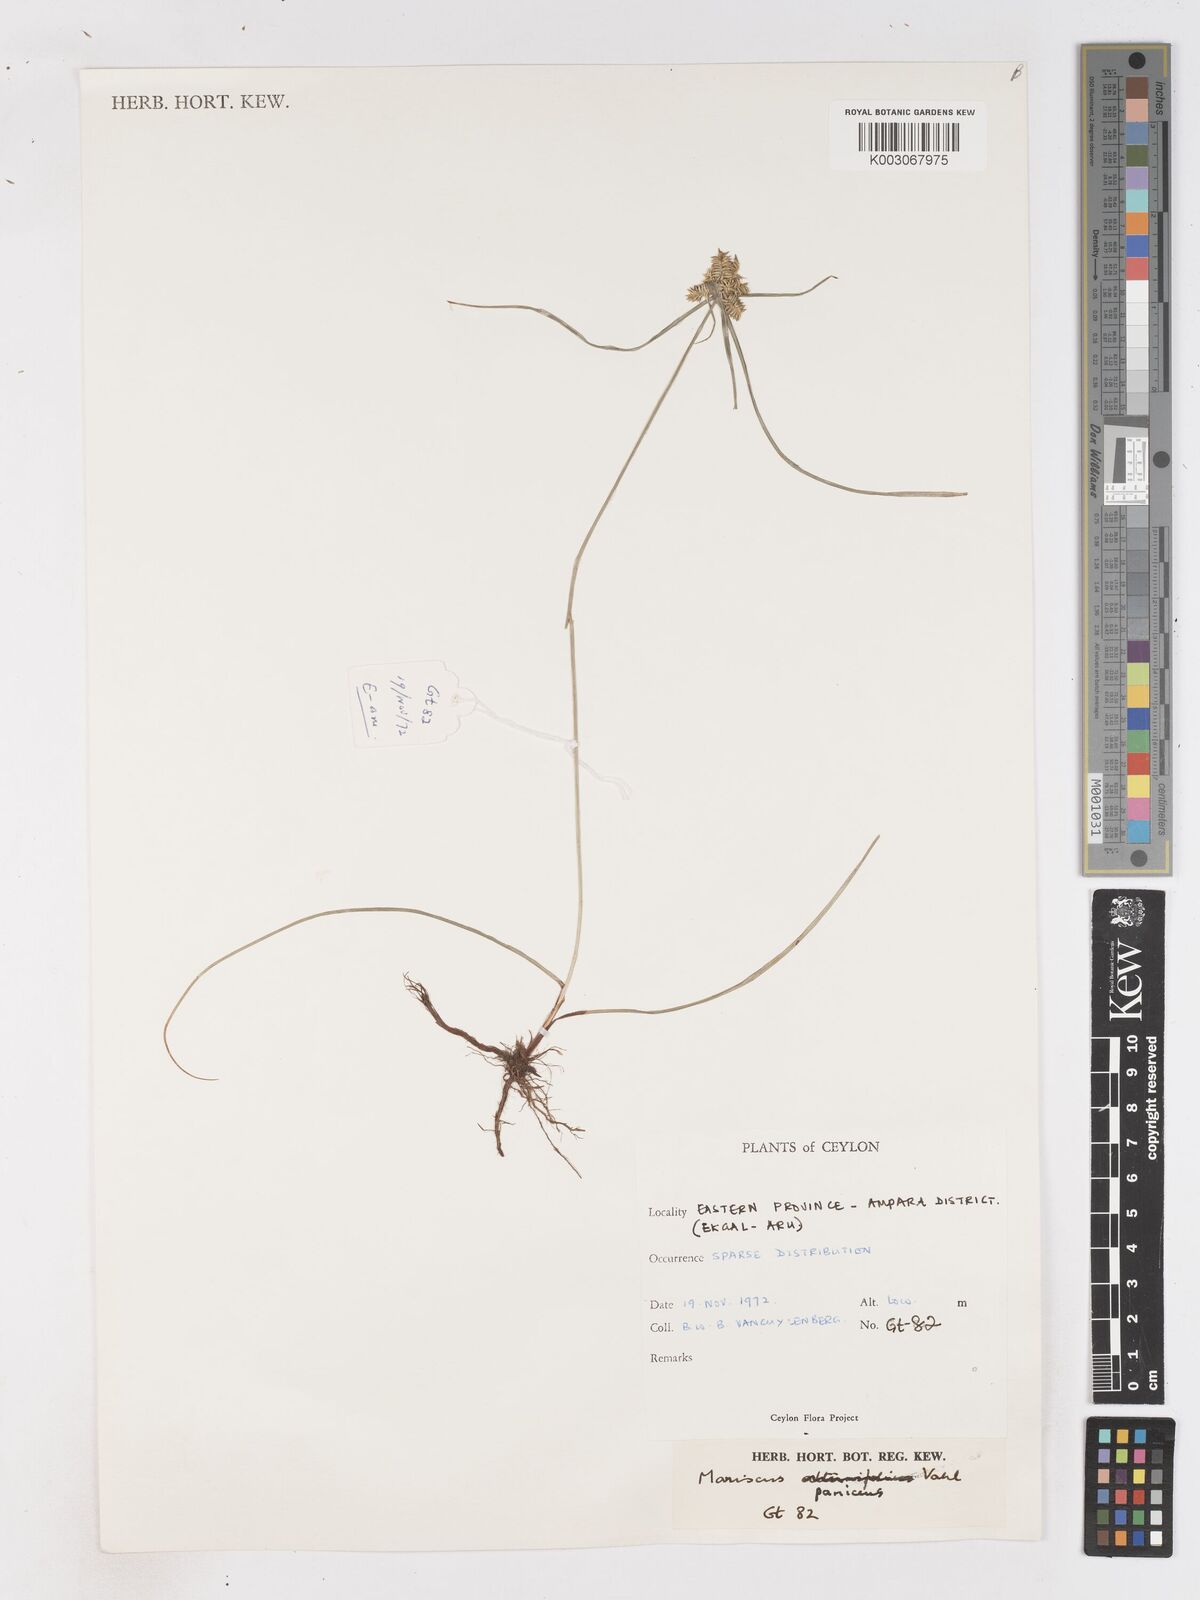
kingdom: Plantae
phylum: Tracheophyta
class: Liliopsida
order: Poales
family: Cyperaceae
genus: Cyperus
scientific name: Cyperus paniceus
